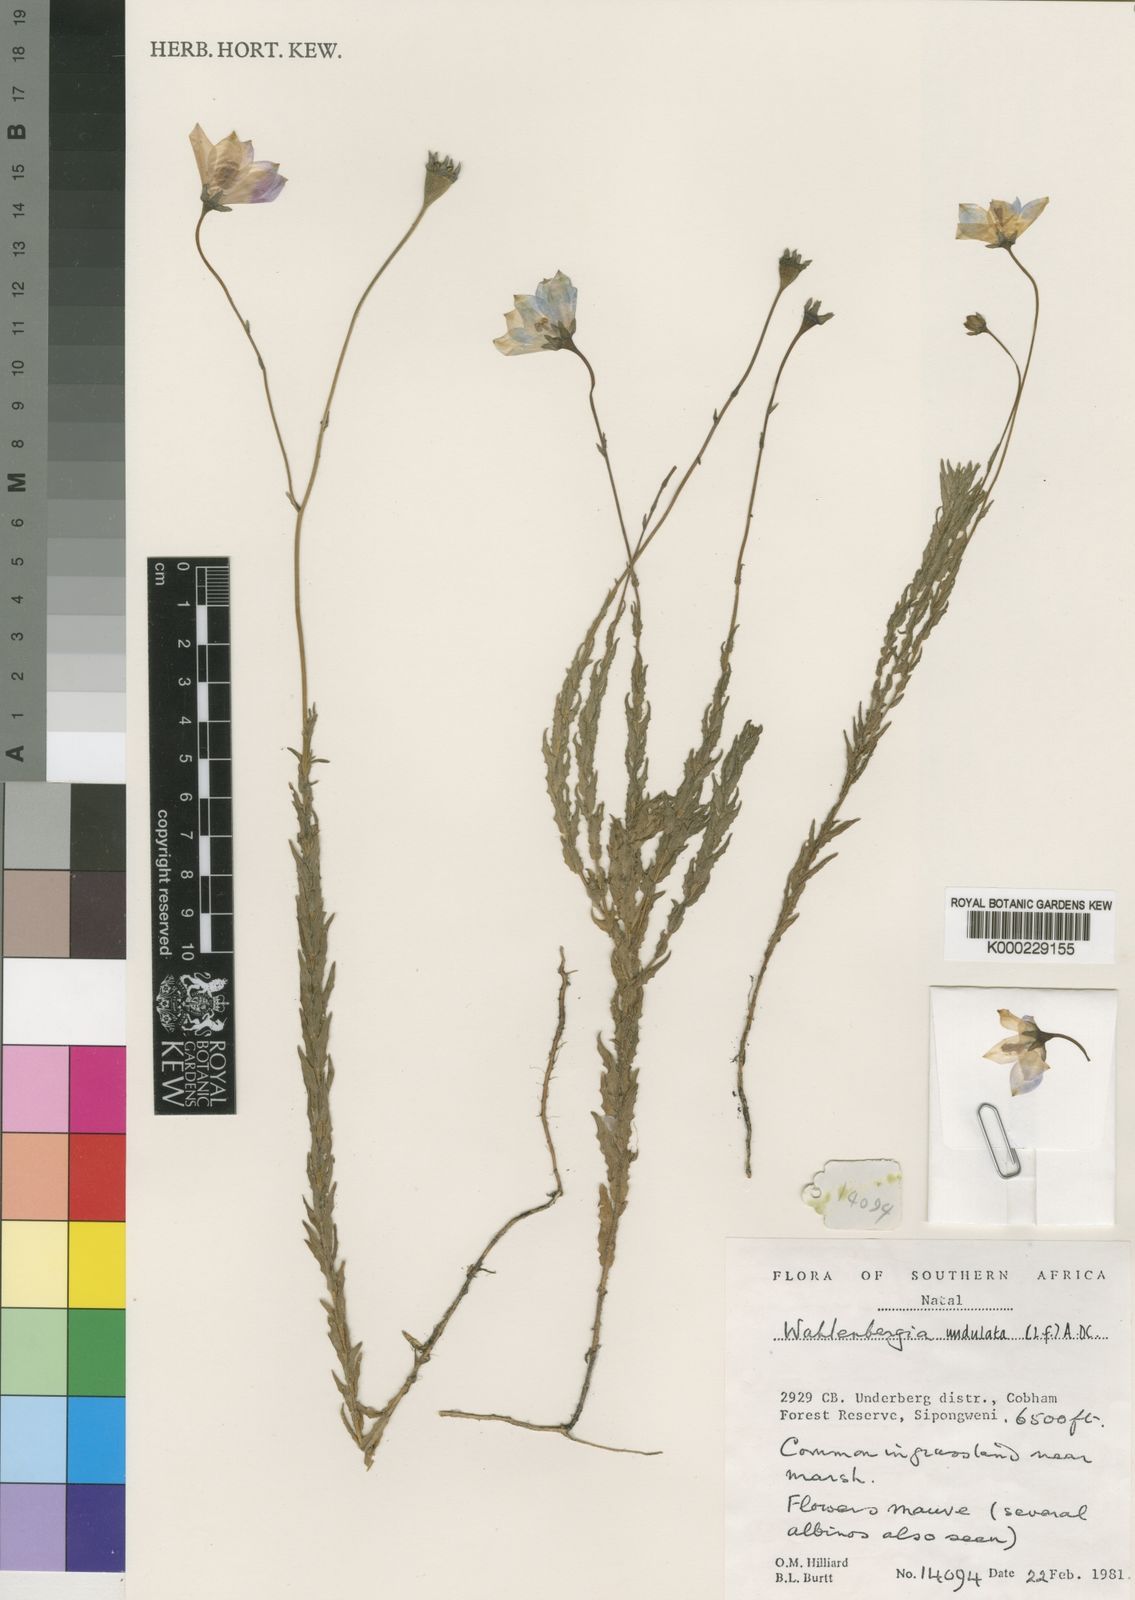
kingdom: Plantae
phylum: Tracheophyta
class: Magnoliopsida
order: Asterales
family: Campanulaceae
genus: Wahlenbergia
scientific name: Wahlenbergia appressifolia
